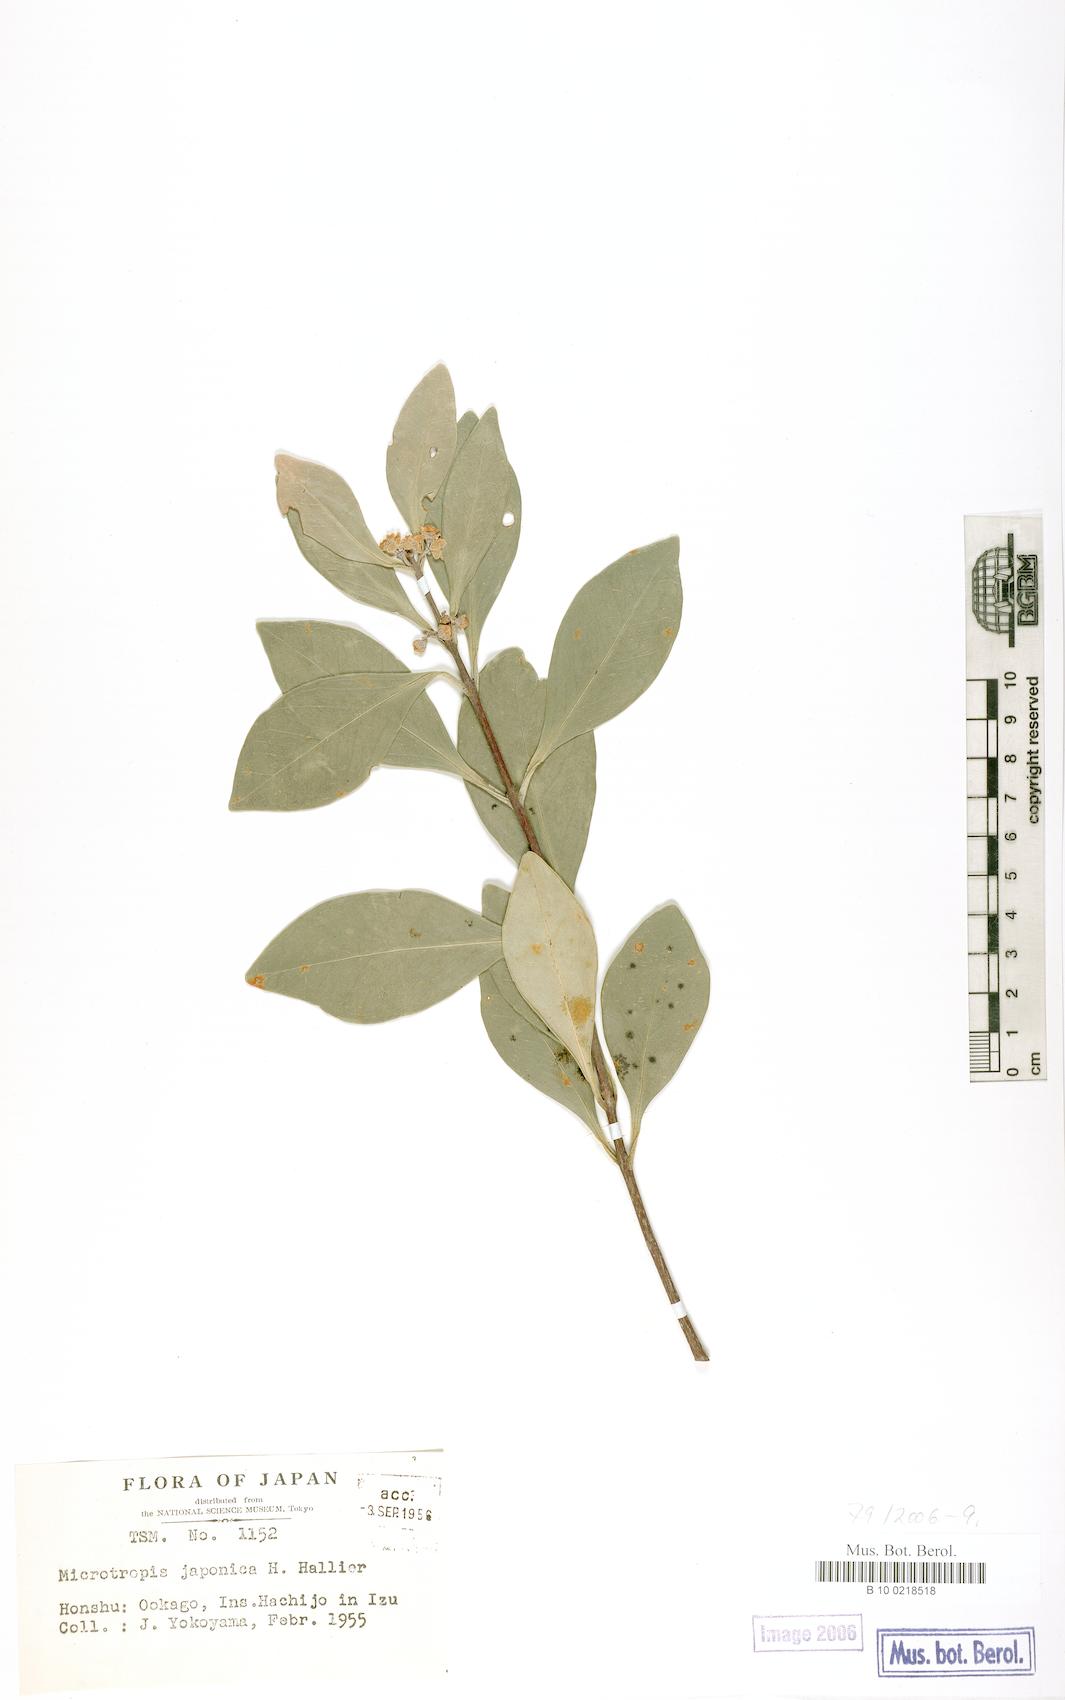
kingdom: Plantae
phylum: Tracheophyta
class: Magnoliopsida
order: Celastrales
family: Celastraceae
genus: Microtropis
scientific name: Microtropis japonica
